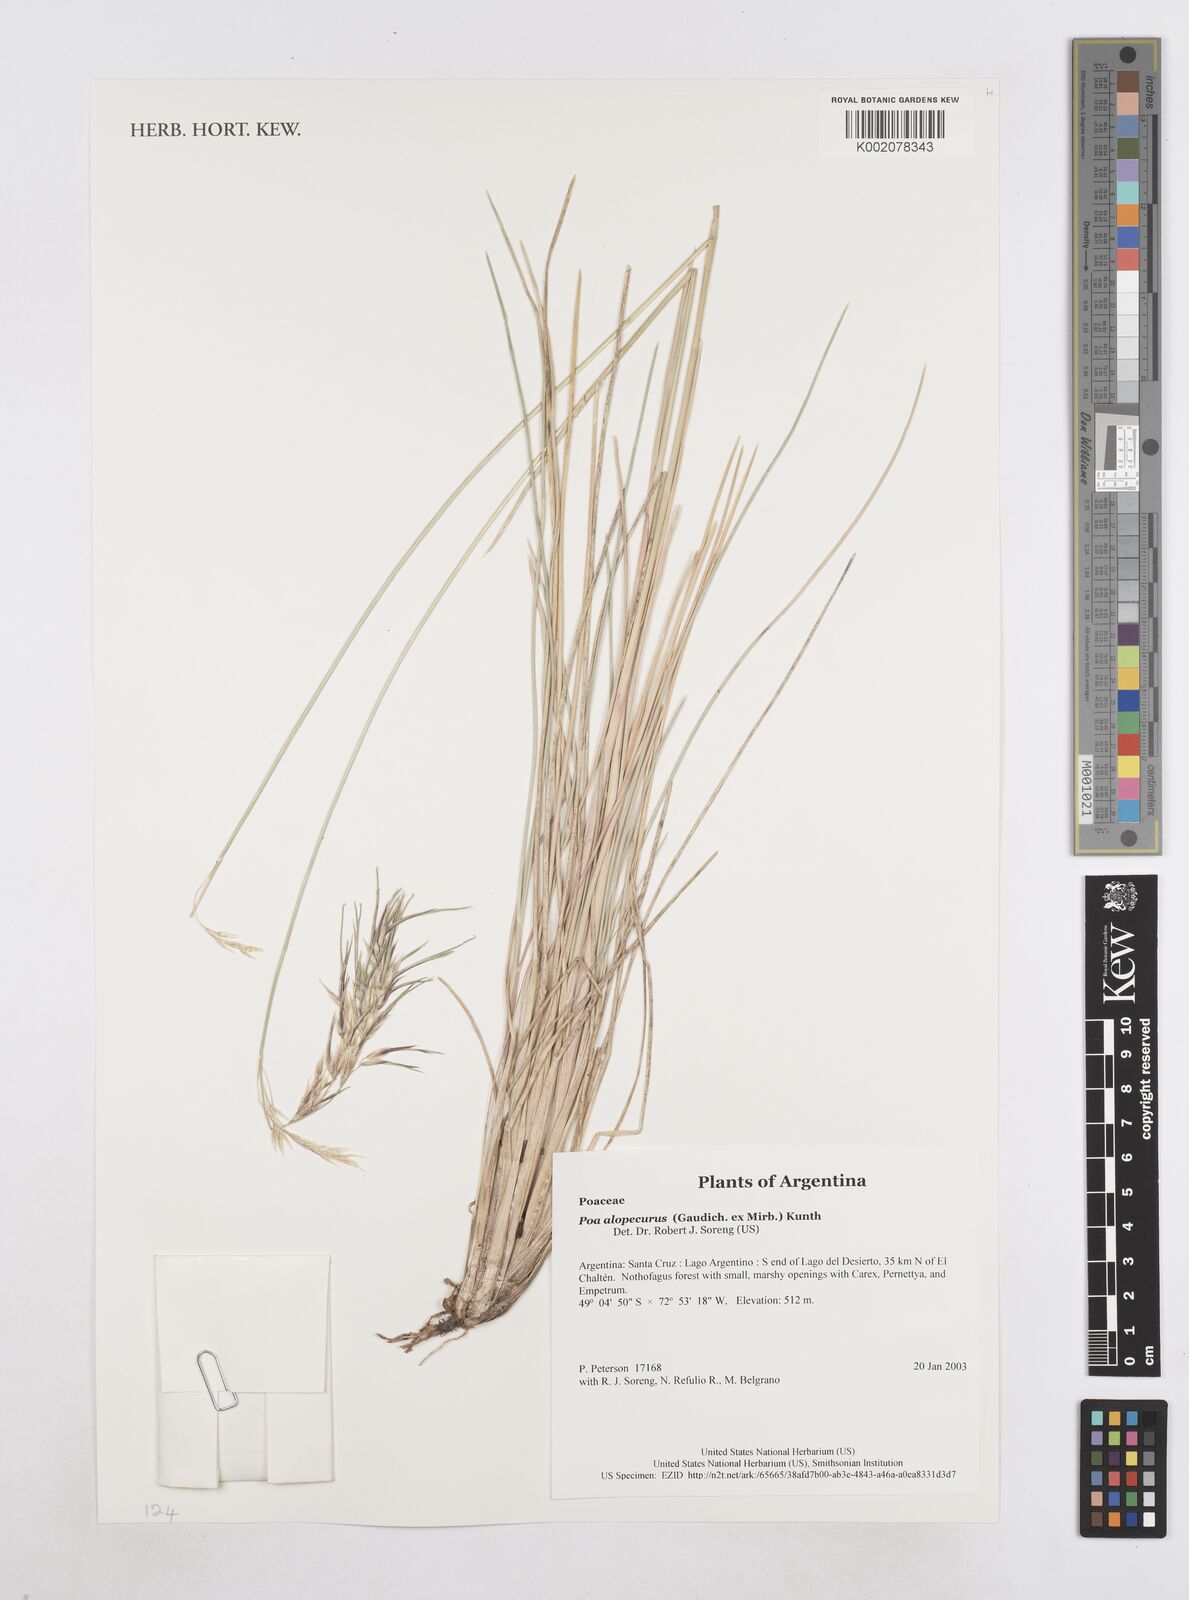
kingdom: Plantae
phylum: Tracheophyta
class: Liliopsida
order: Poales
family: Poaceae
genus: Poa
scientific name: Poa alopecurus
